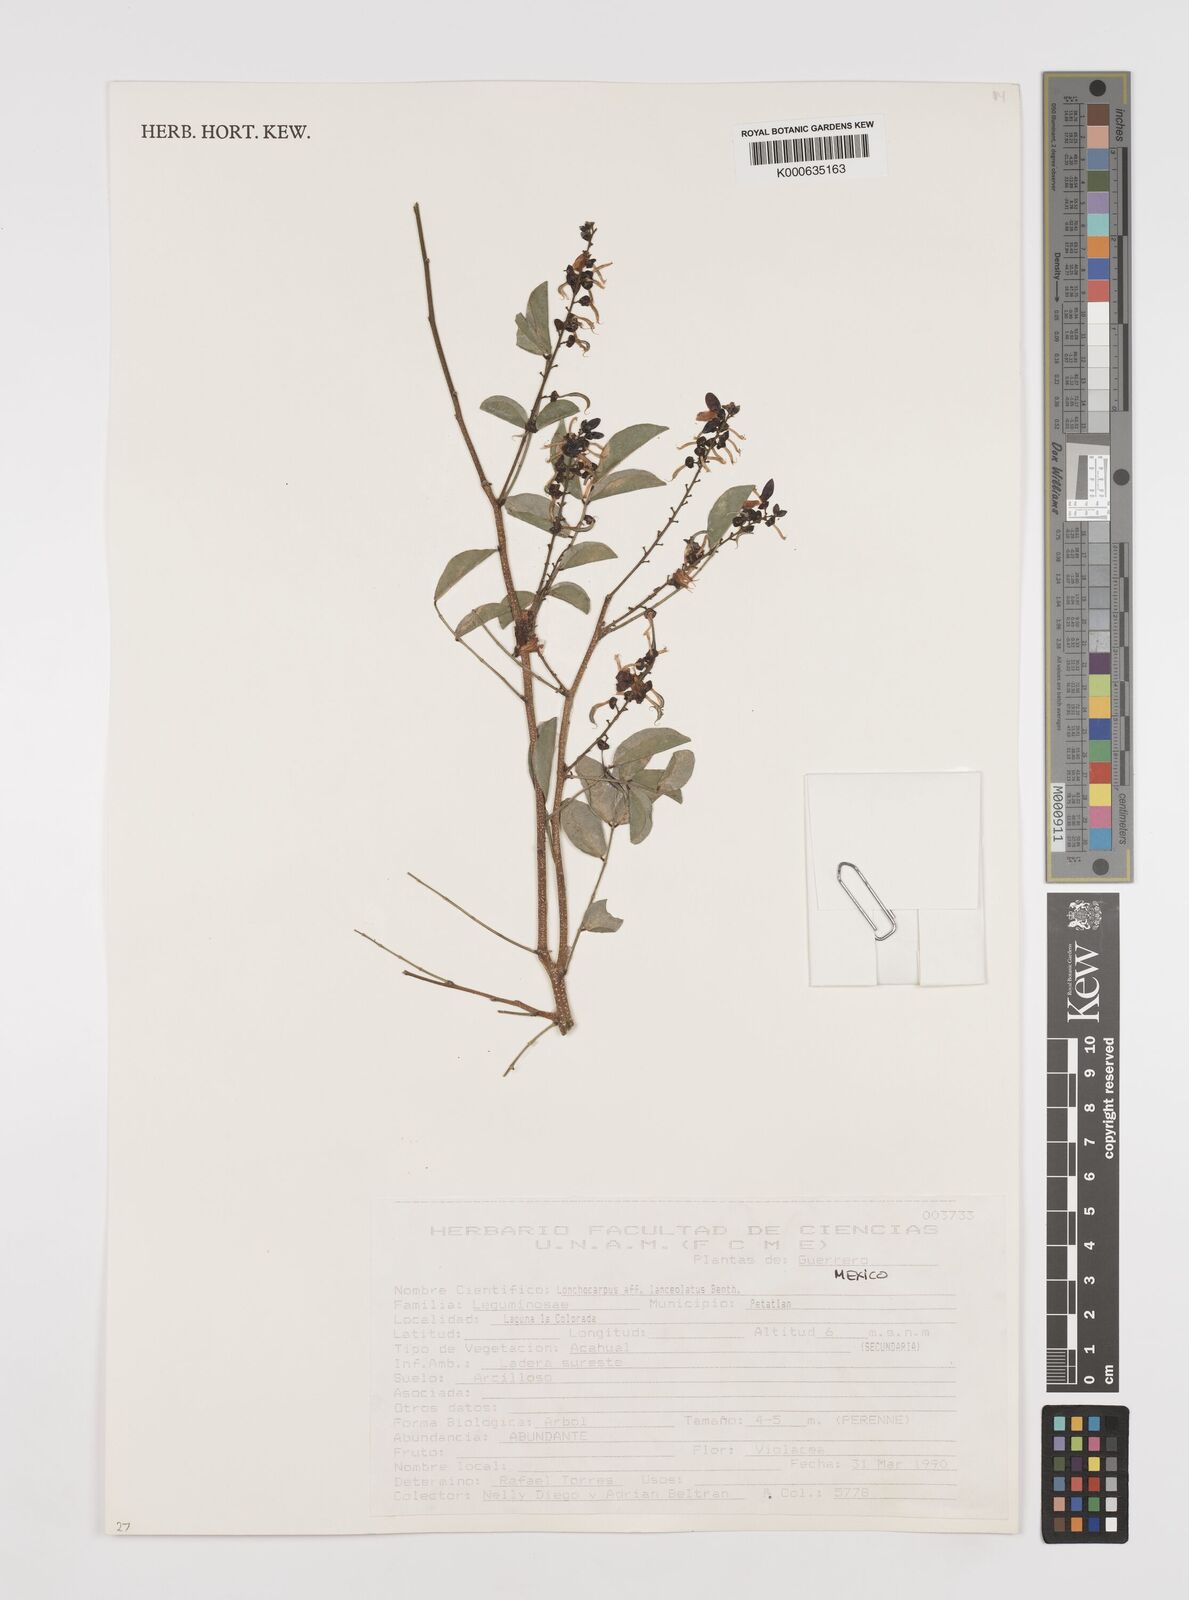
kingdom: Plantae
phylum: Tracheophyta
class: Magnoliopsida
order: Fabales
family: Fabaceae
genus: Lonchocarpus
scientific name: Lonchocarpus lanceolatus
